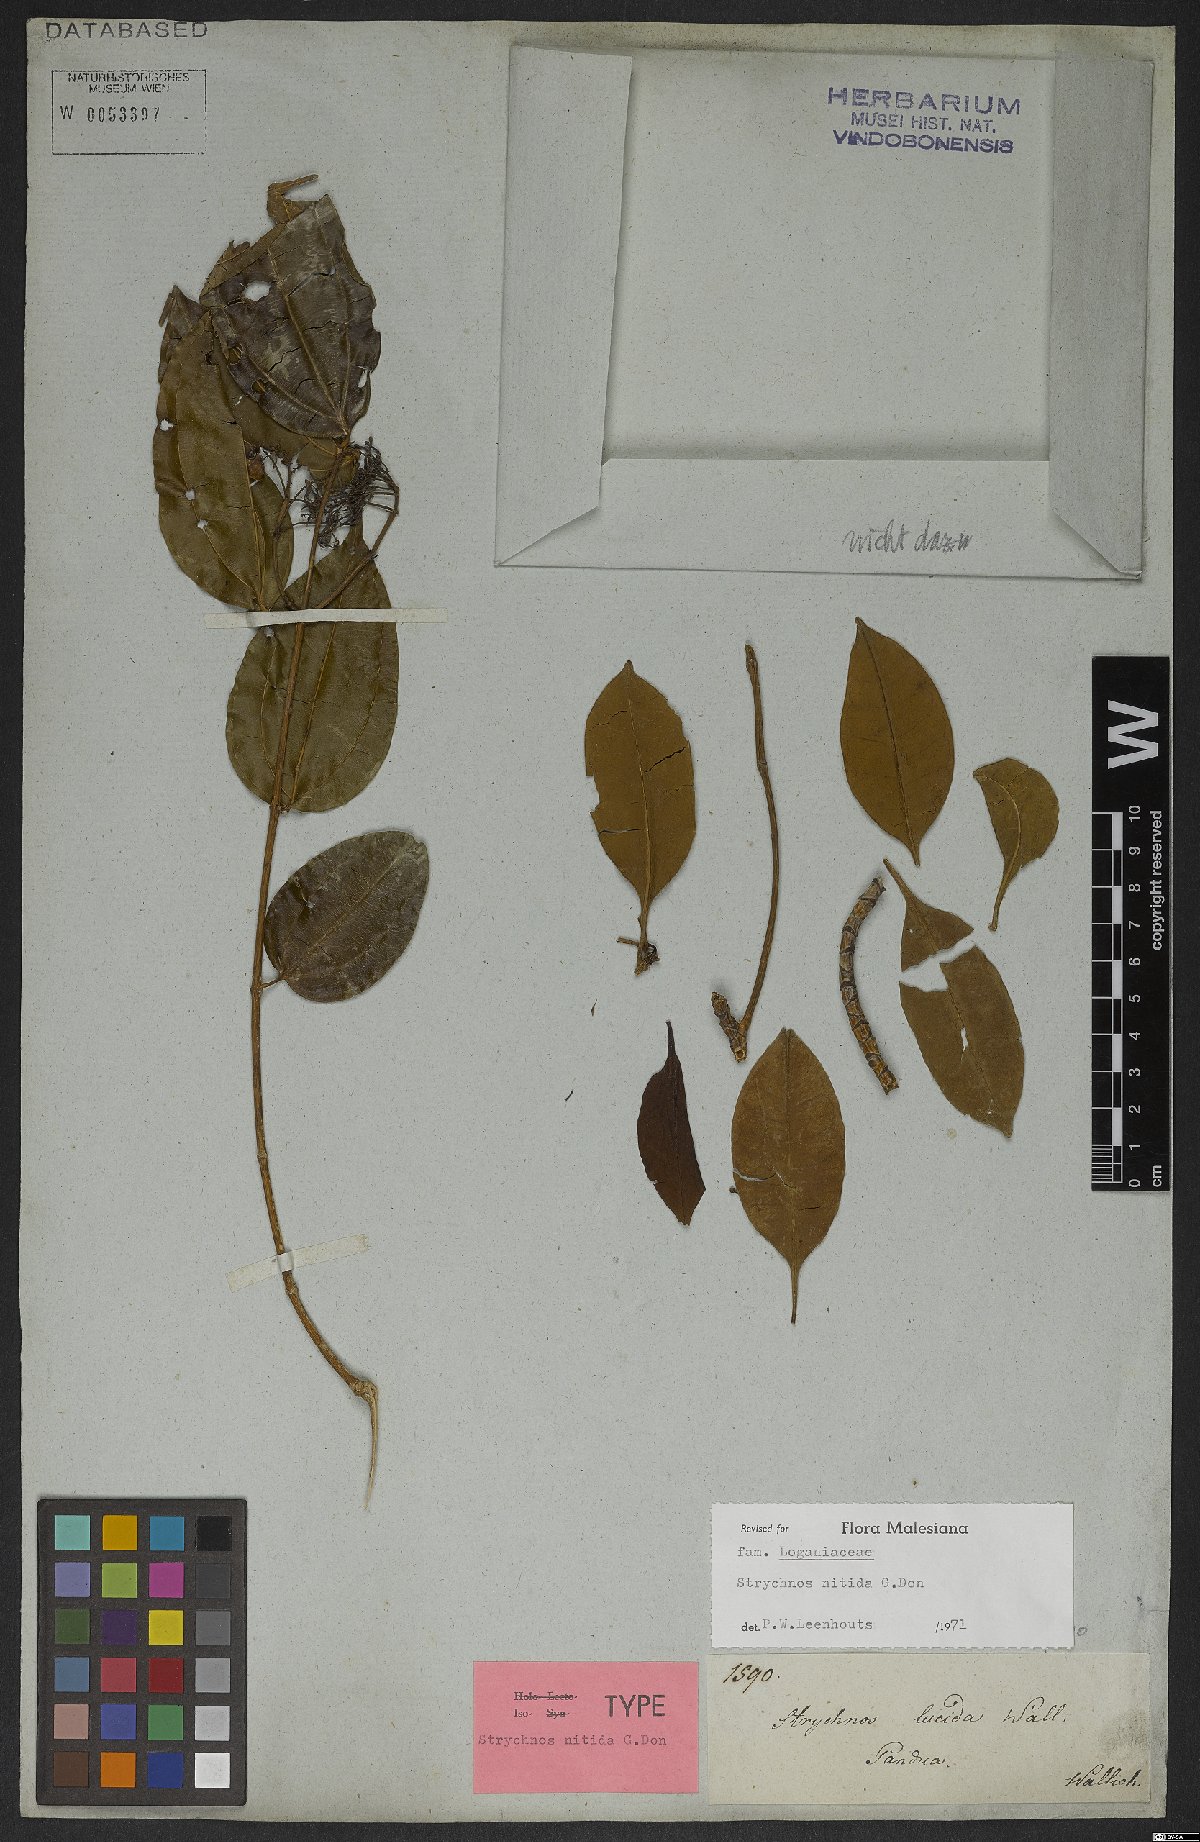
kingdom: Plantae
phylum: Tracheophyta
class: Magnoliopsida
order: Gentianales
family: Loganiaceae
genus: Strychnos
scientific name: Strychnos nitida
